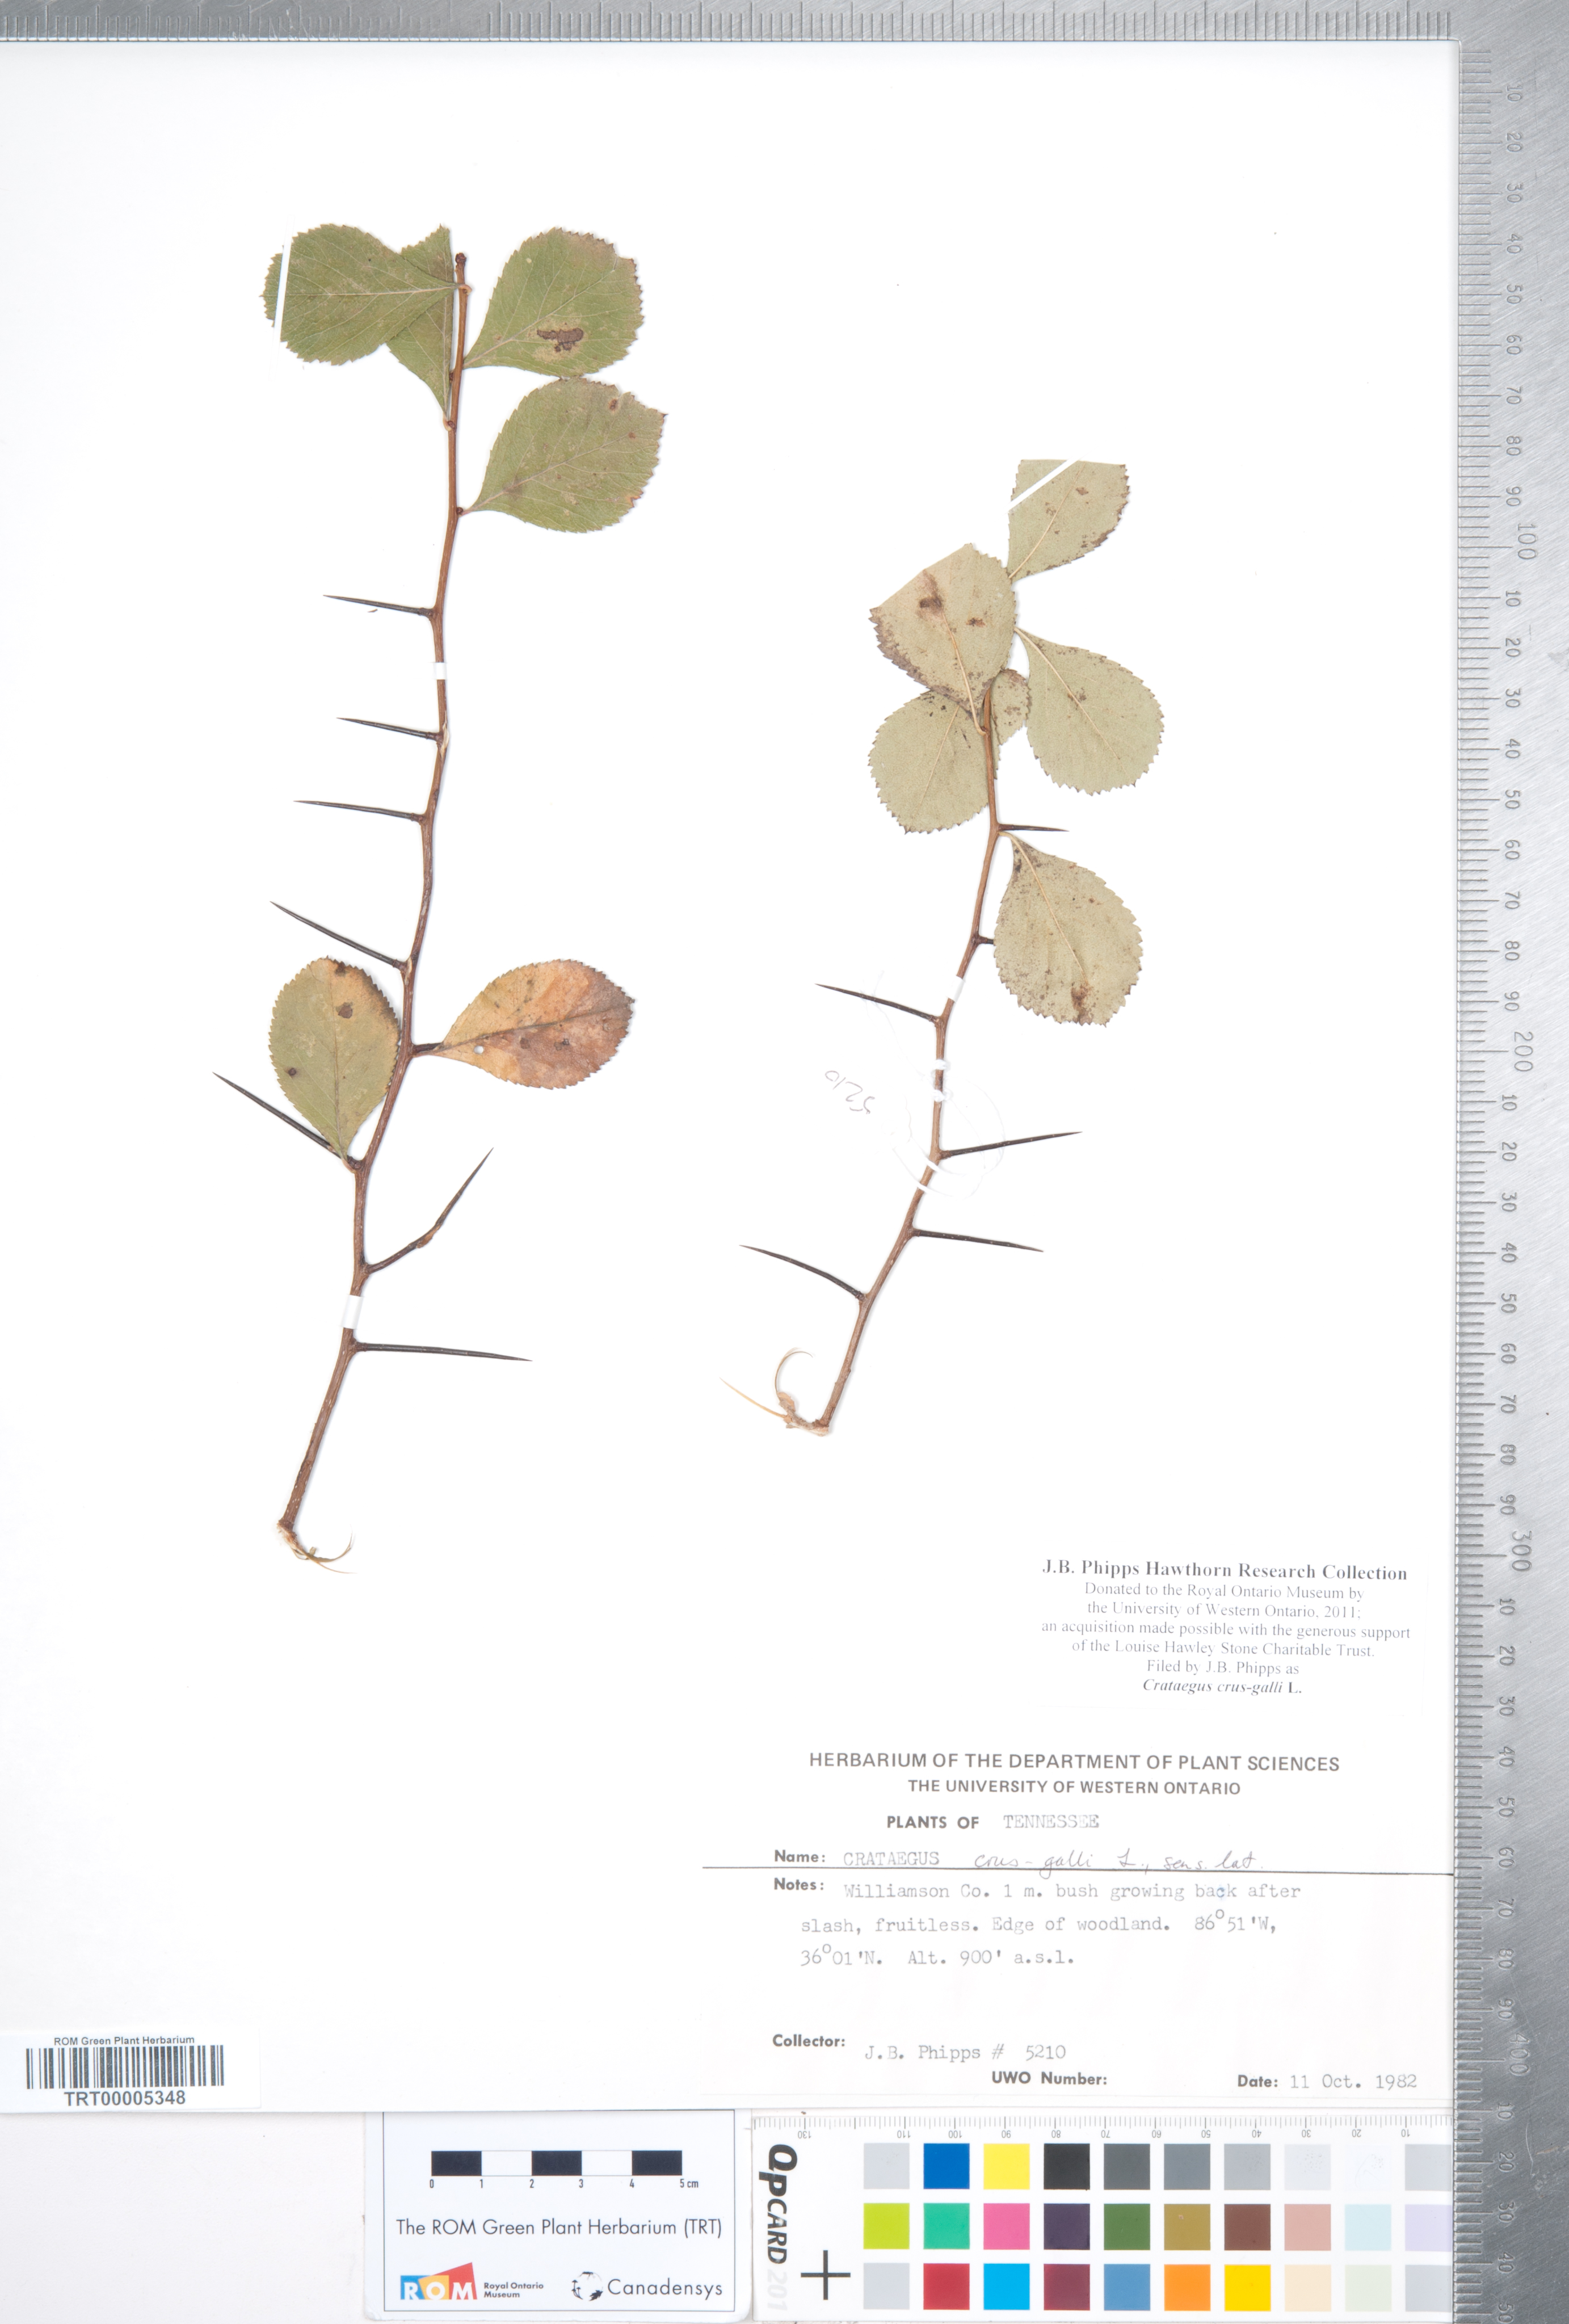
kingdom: Plantae
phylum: Tracheophyta
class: Magnoliopsida
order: Rosales
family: Rosaceae
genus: Crataegus
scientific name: Crataegus crus-galli
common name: Cockspurthorn
